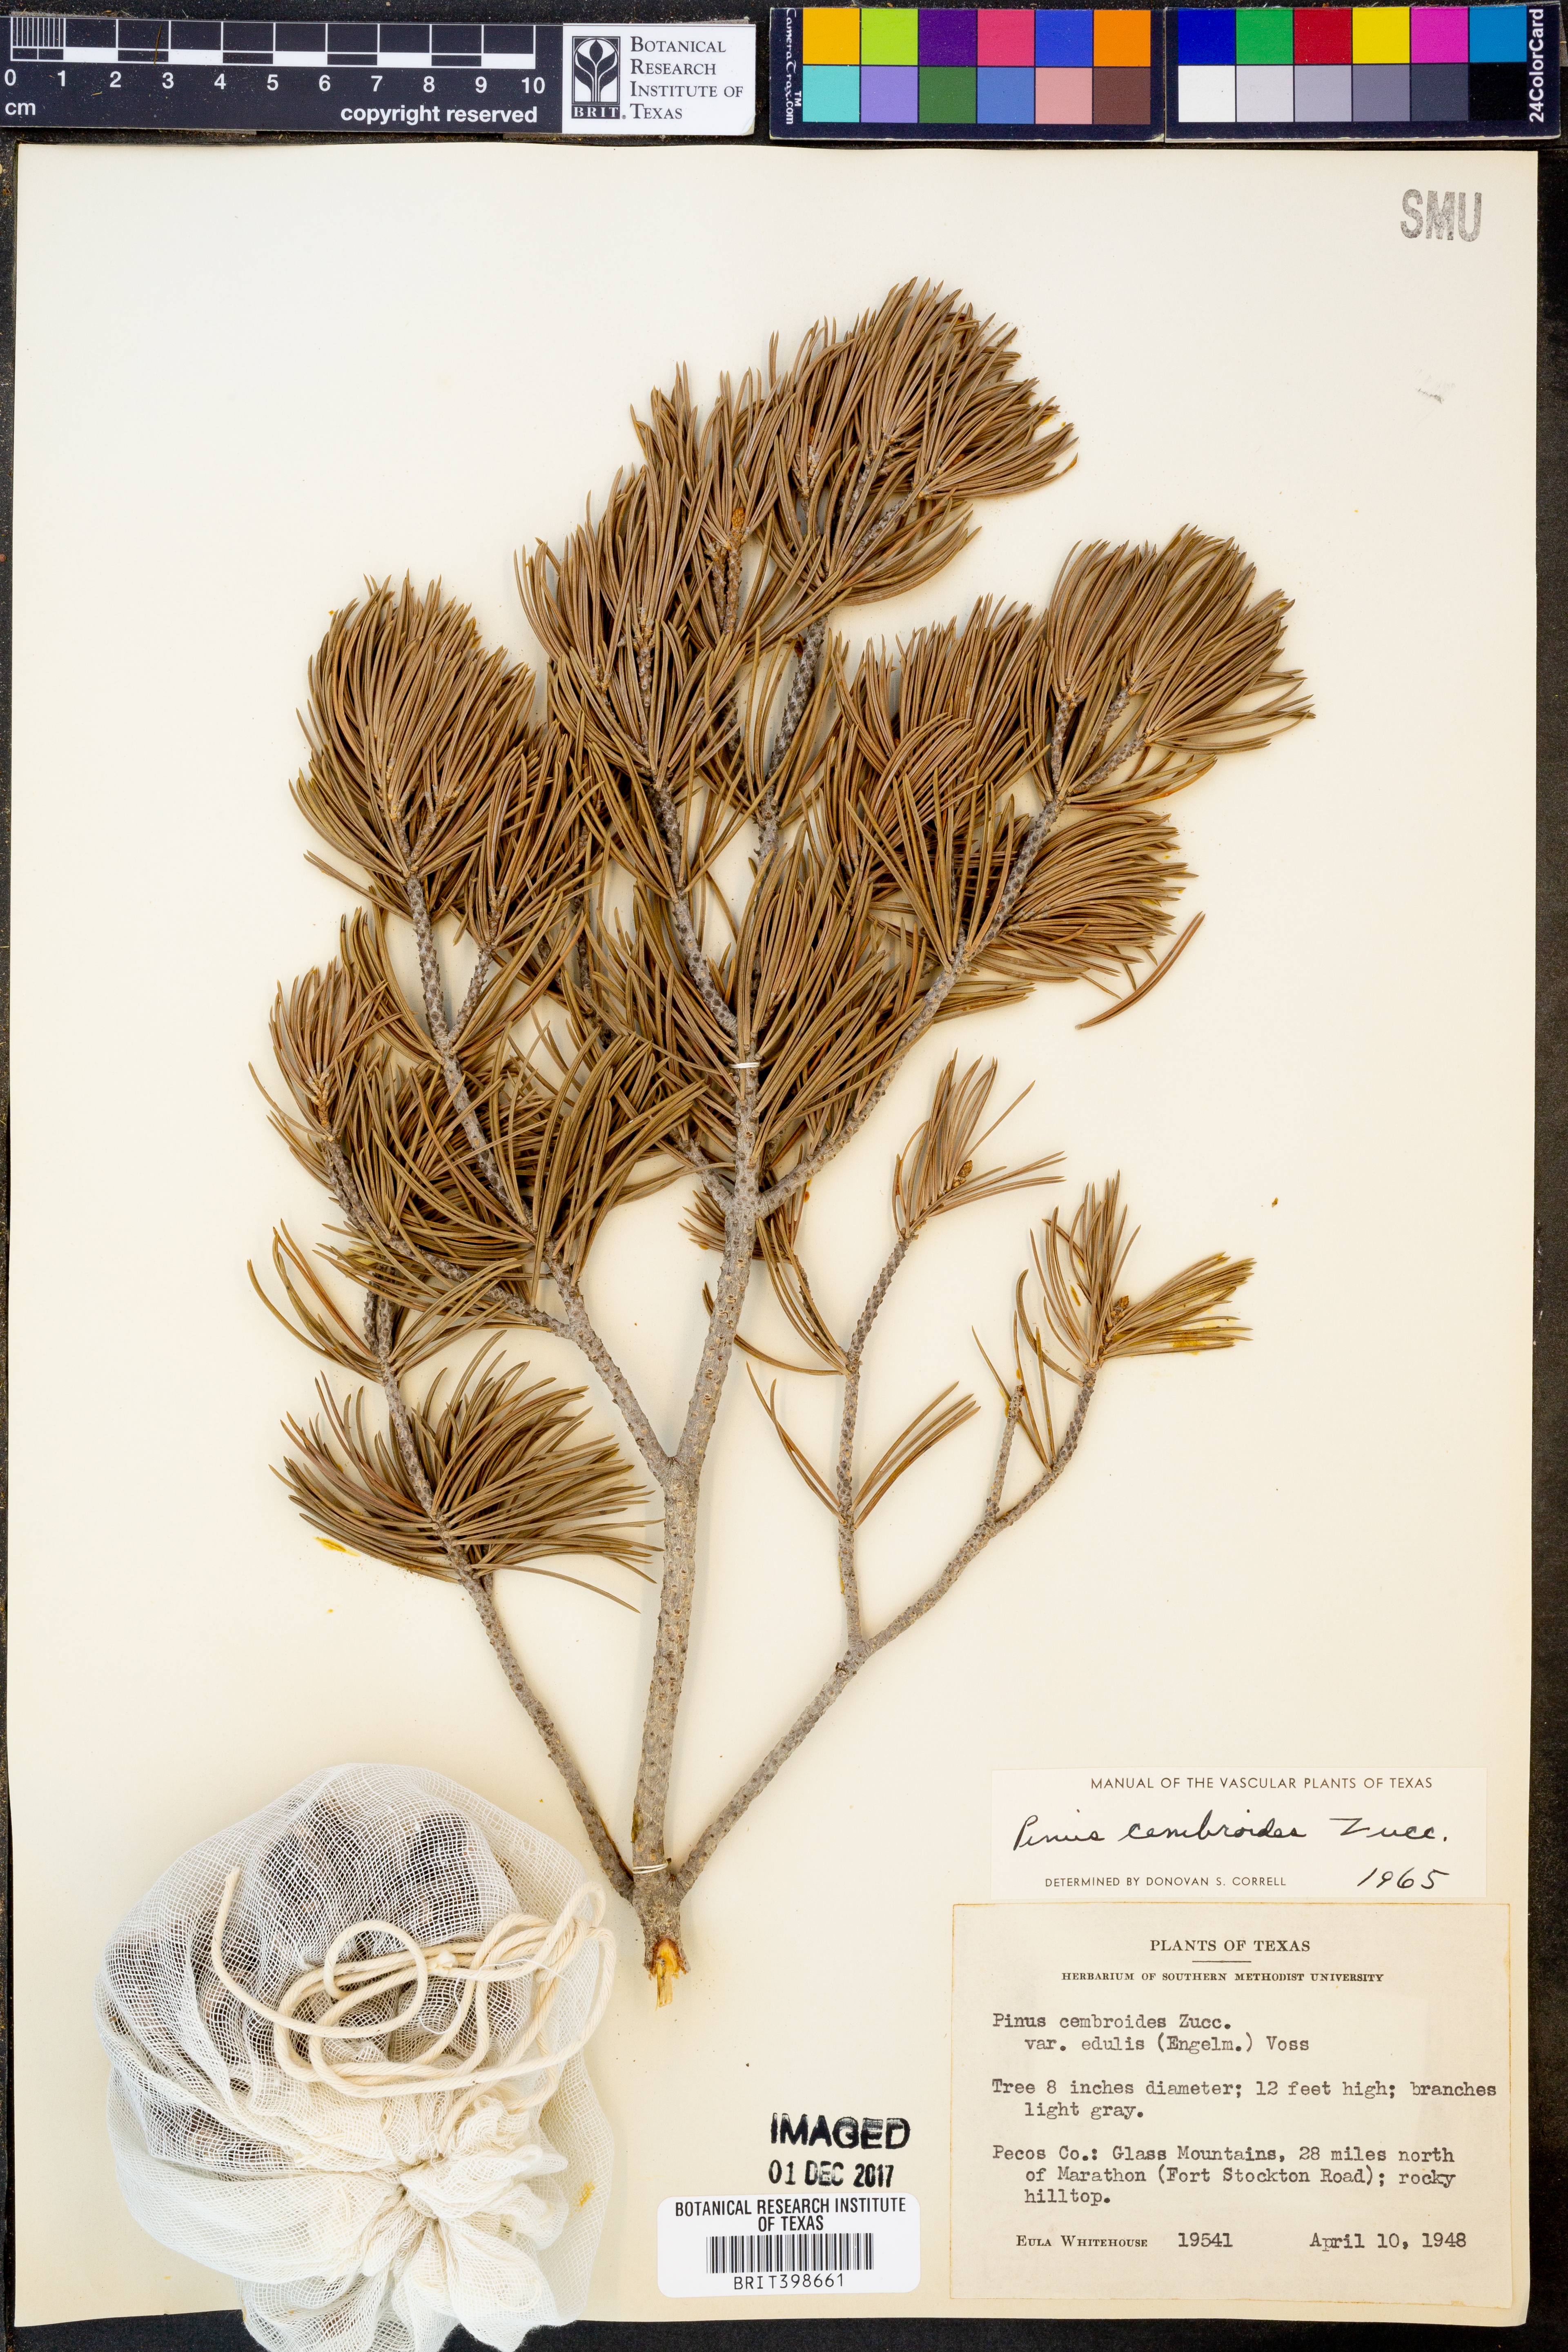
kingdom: Plantae
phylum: Tracheophyta
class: Pinopsida
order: Pinales
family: Pinaceae
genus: Pinus
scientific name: Pinus cembroides
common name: Mexican nut pine
